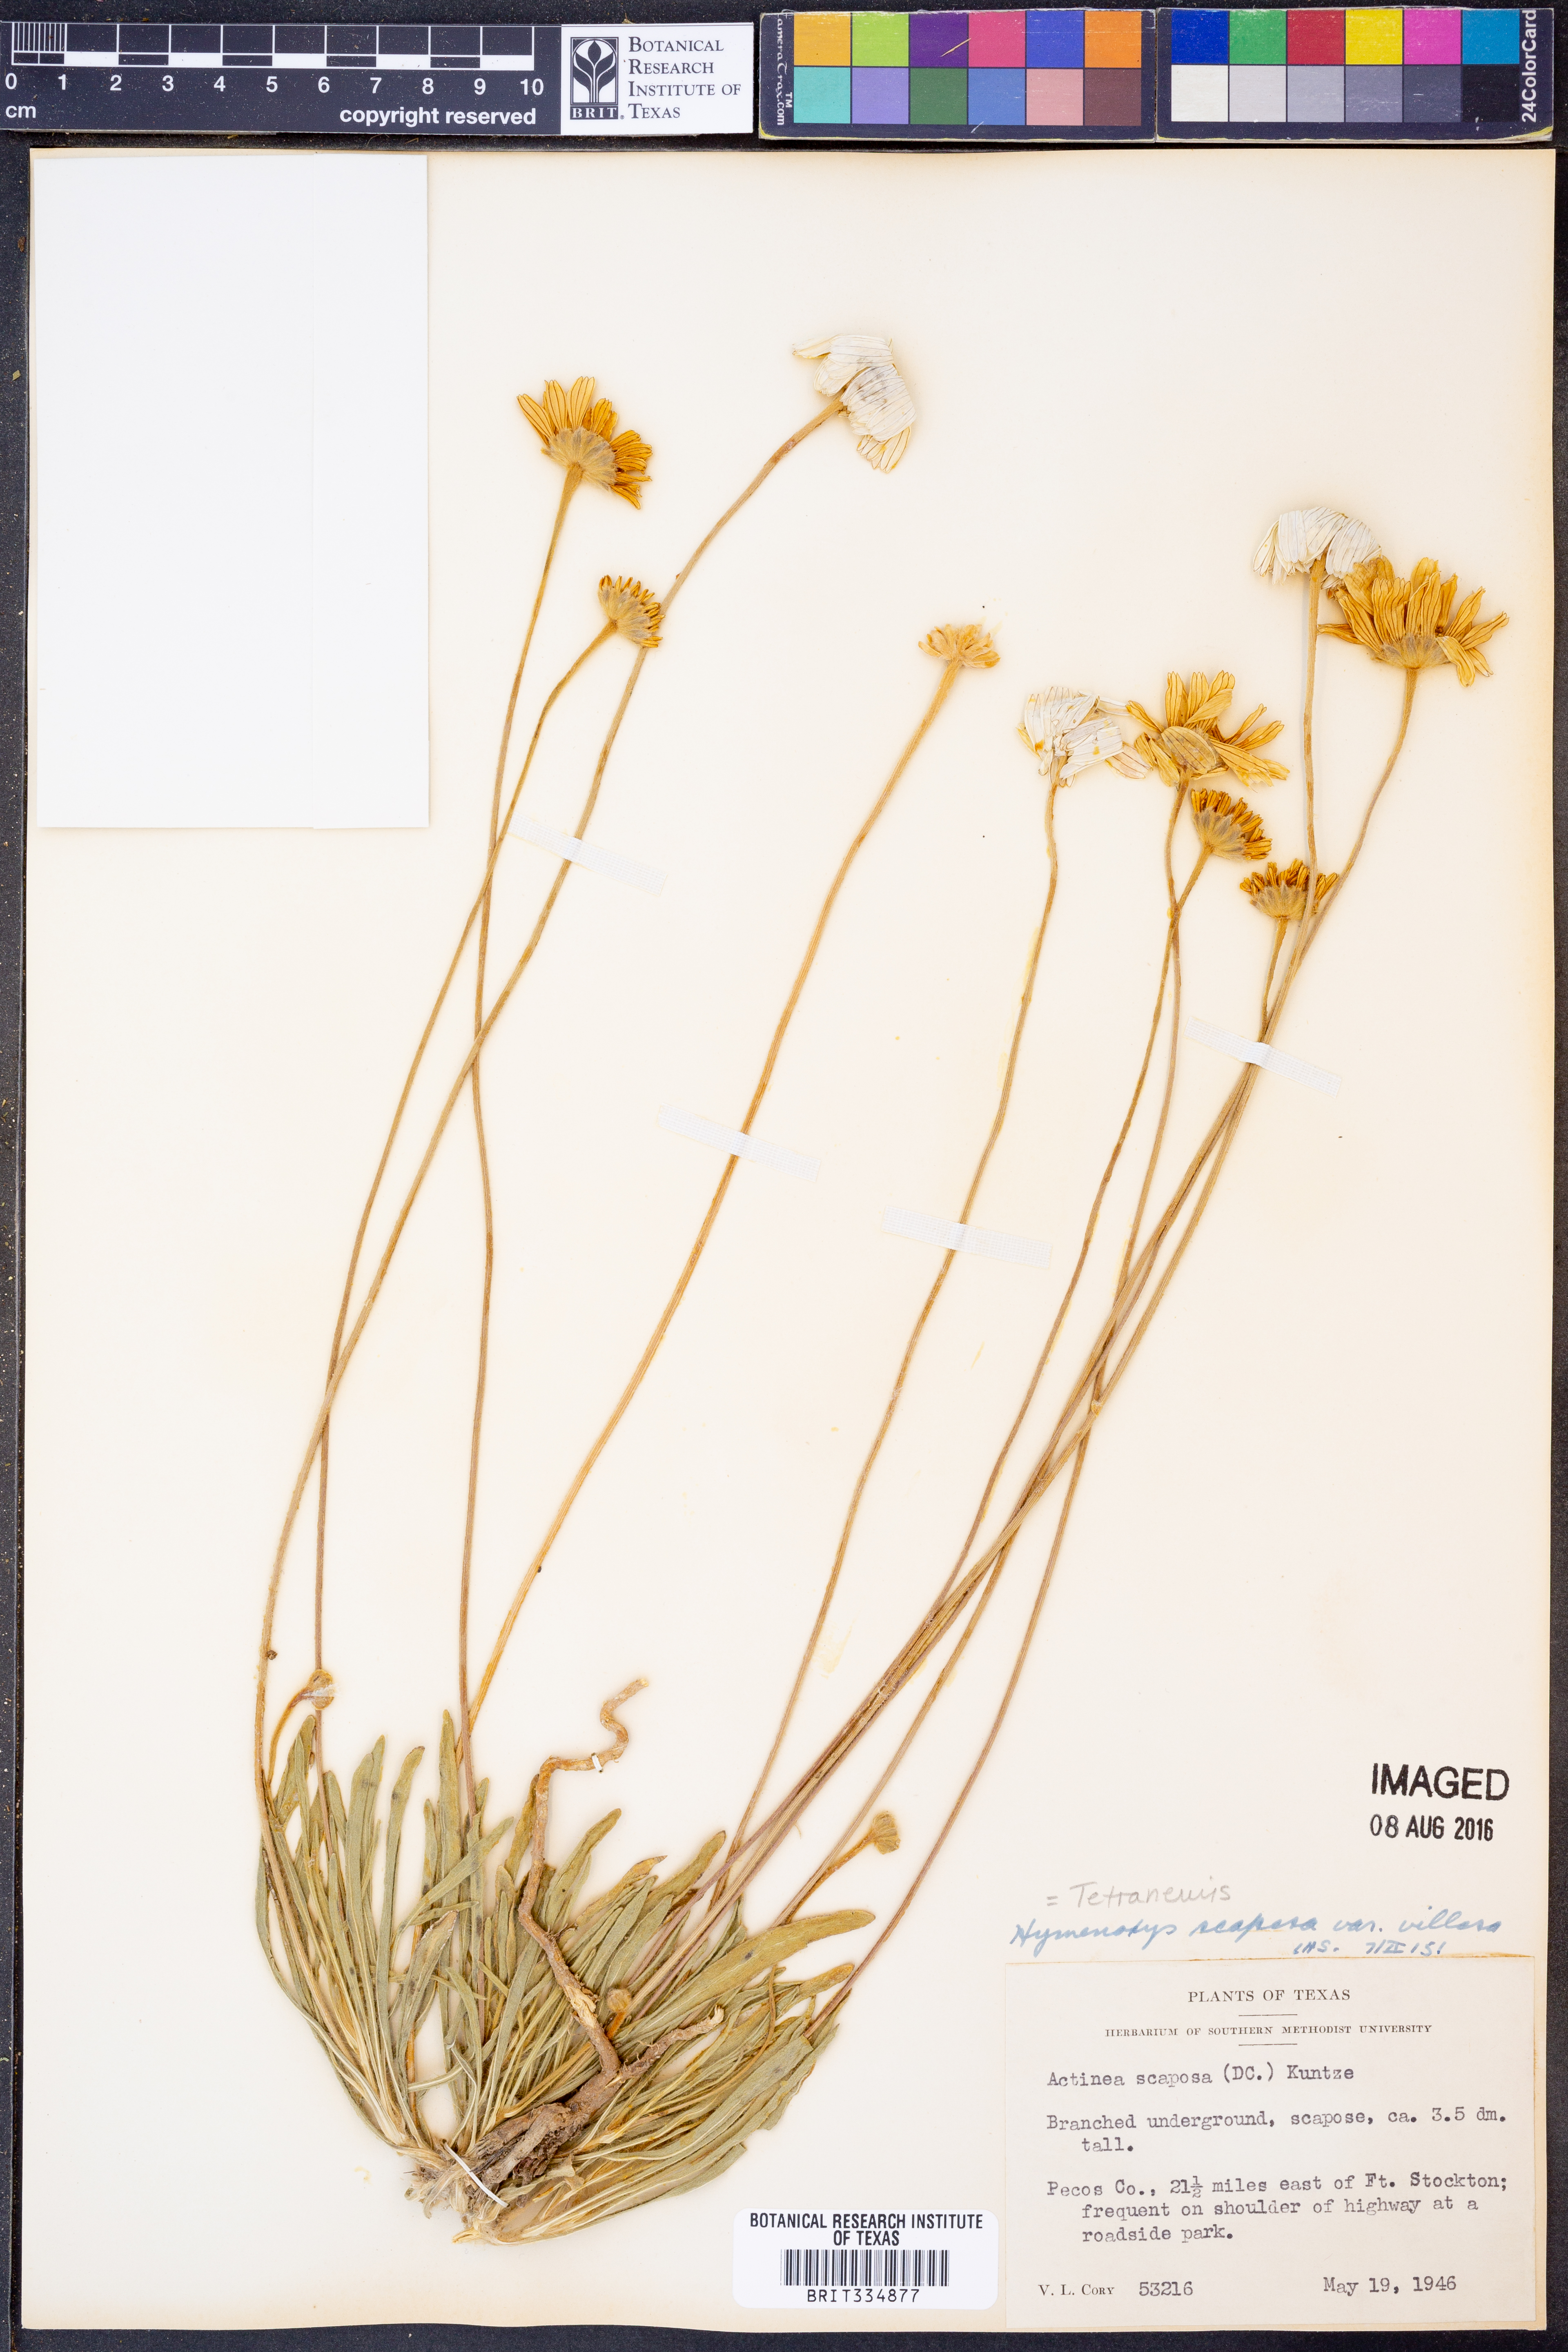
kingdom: Plantae
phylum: Tracheophyta
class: Magnoliopsida
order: Asterales
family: Asteraceae
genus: Tetraneuris
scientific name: Tetraneuris scaposa
